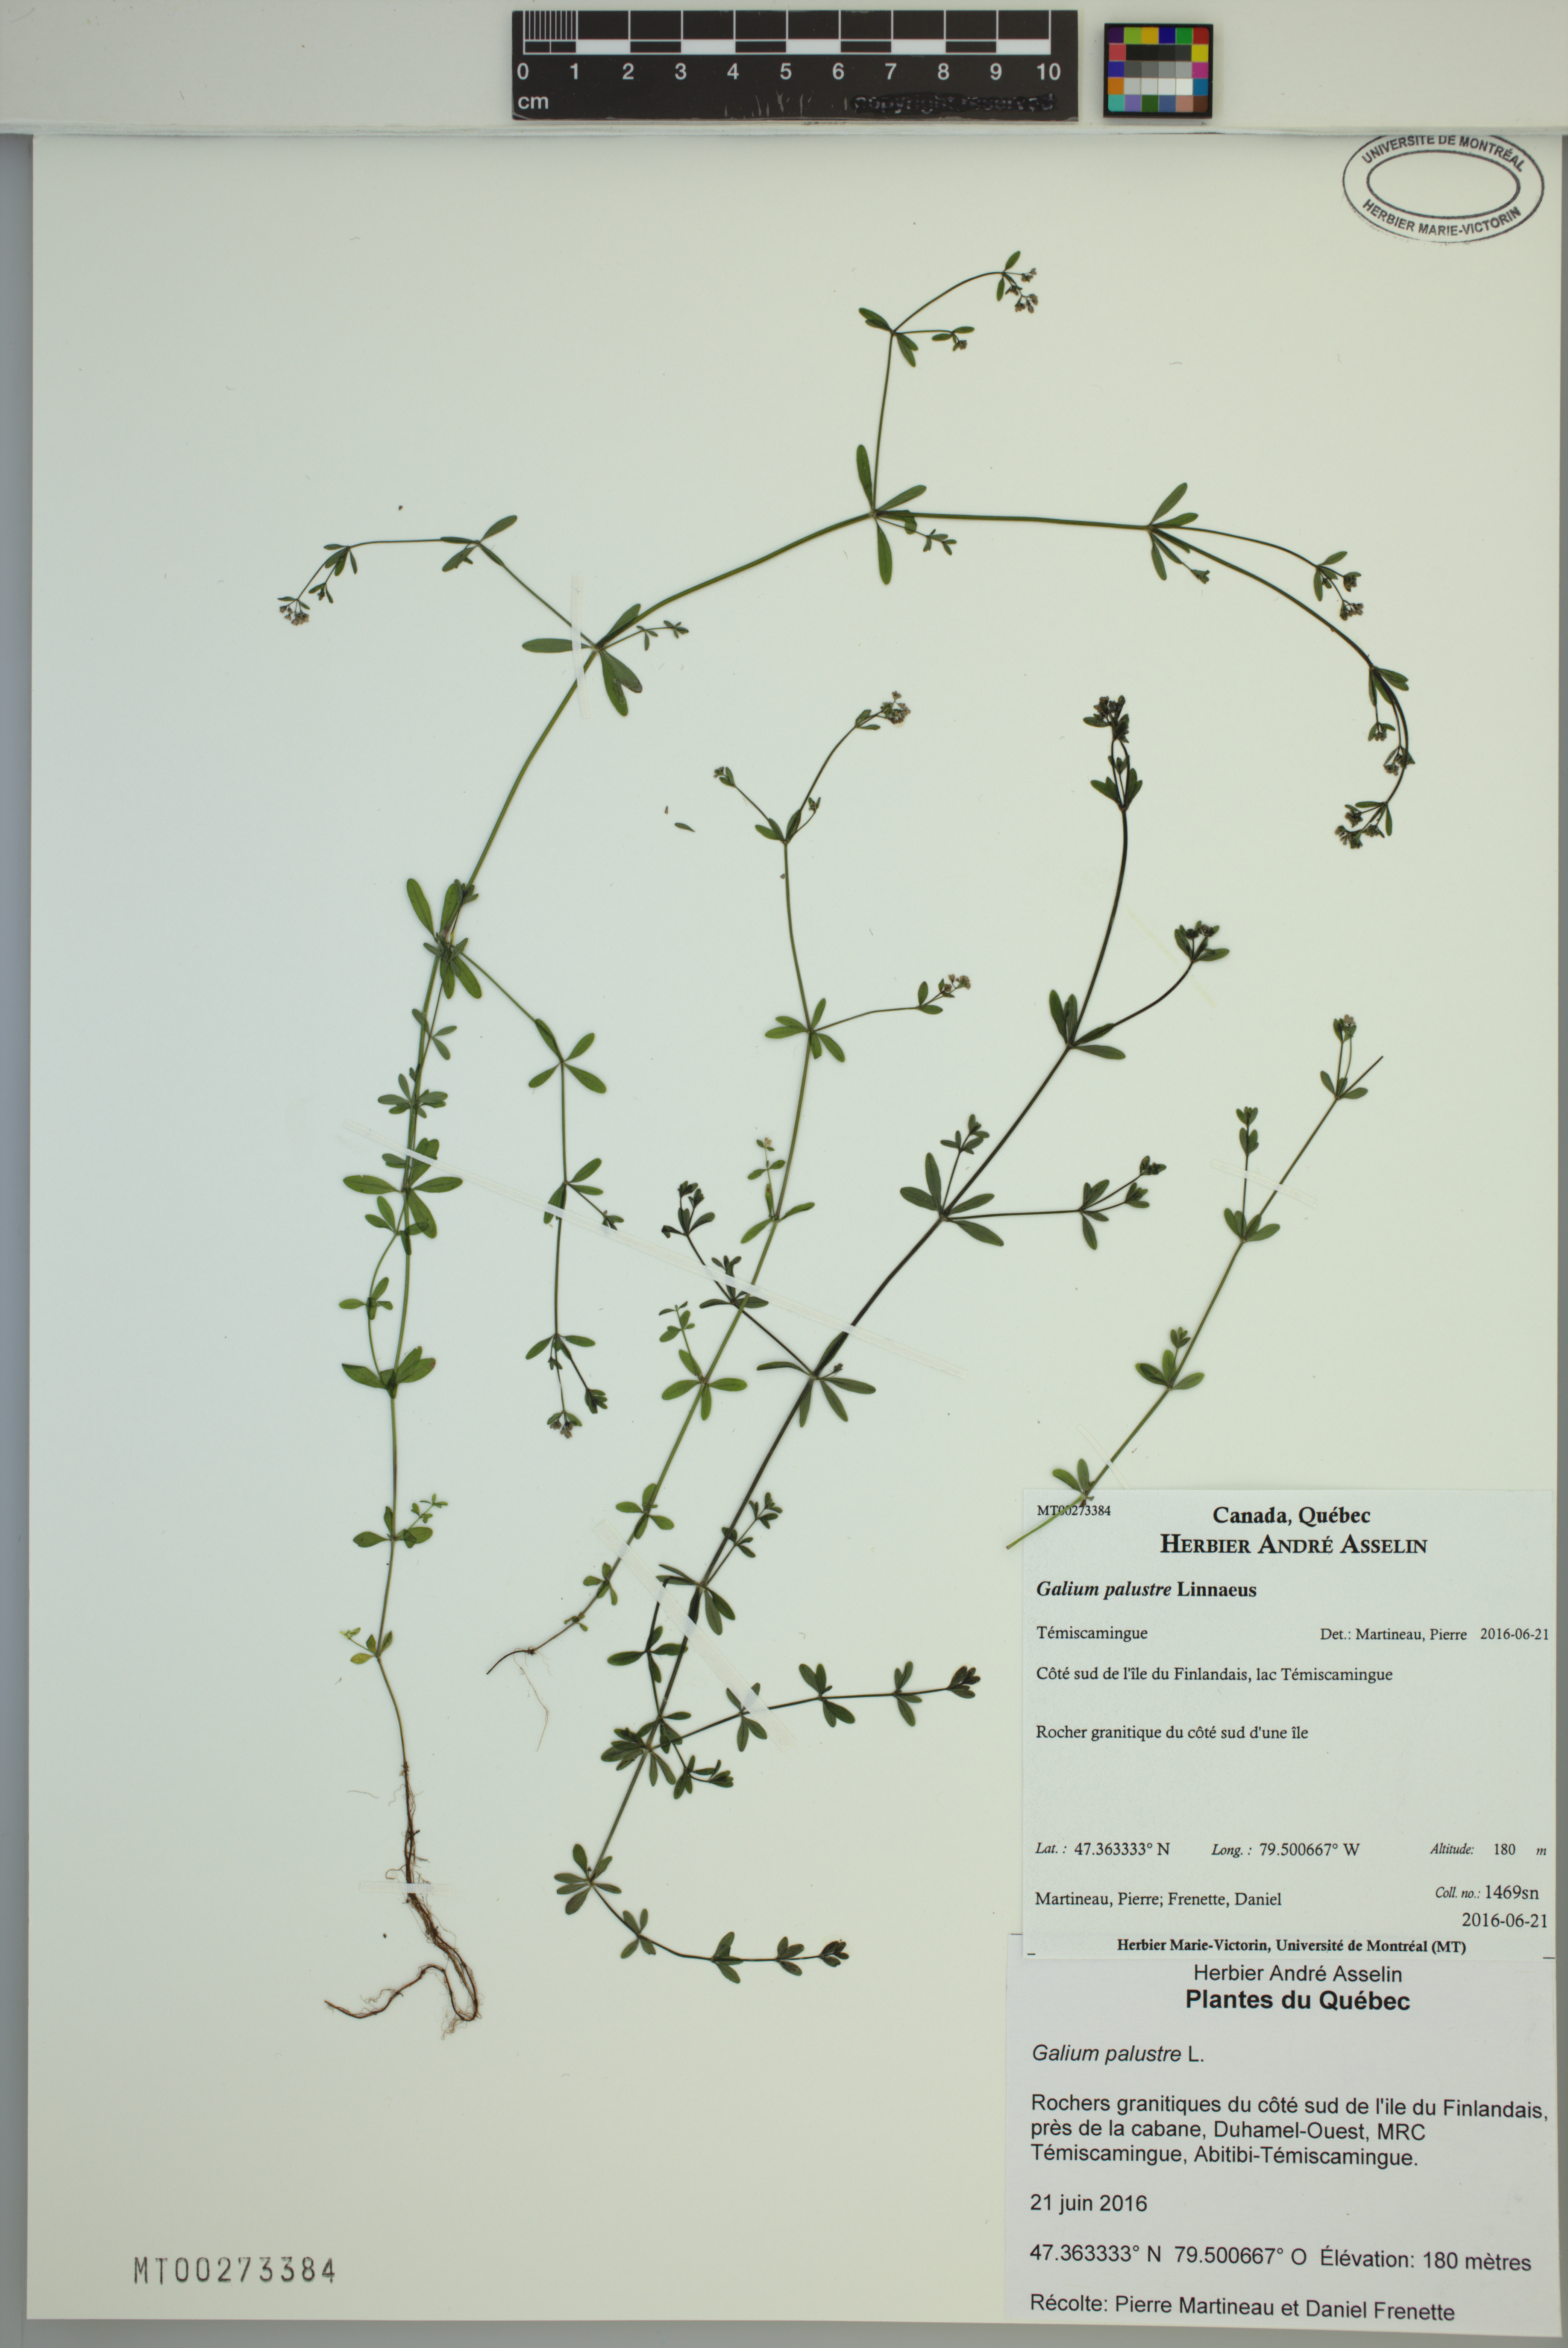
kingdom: Plantae
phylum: Tracheophyta
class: Magnoliopsida
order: Gentianales
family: Rubiaceae
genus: Galium
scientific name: Galium palustre
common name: Common marsh-bedstraw
